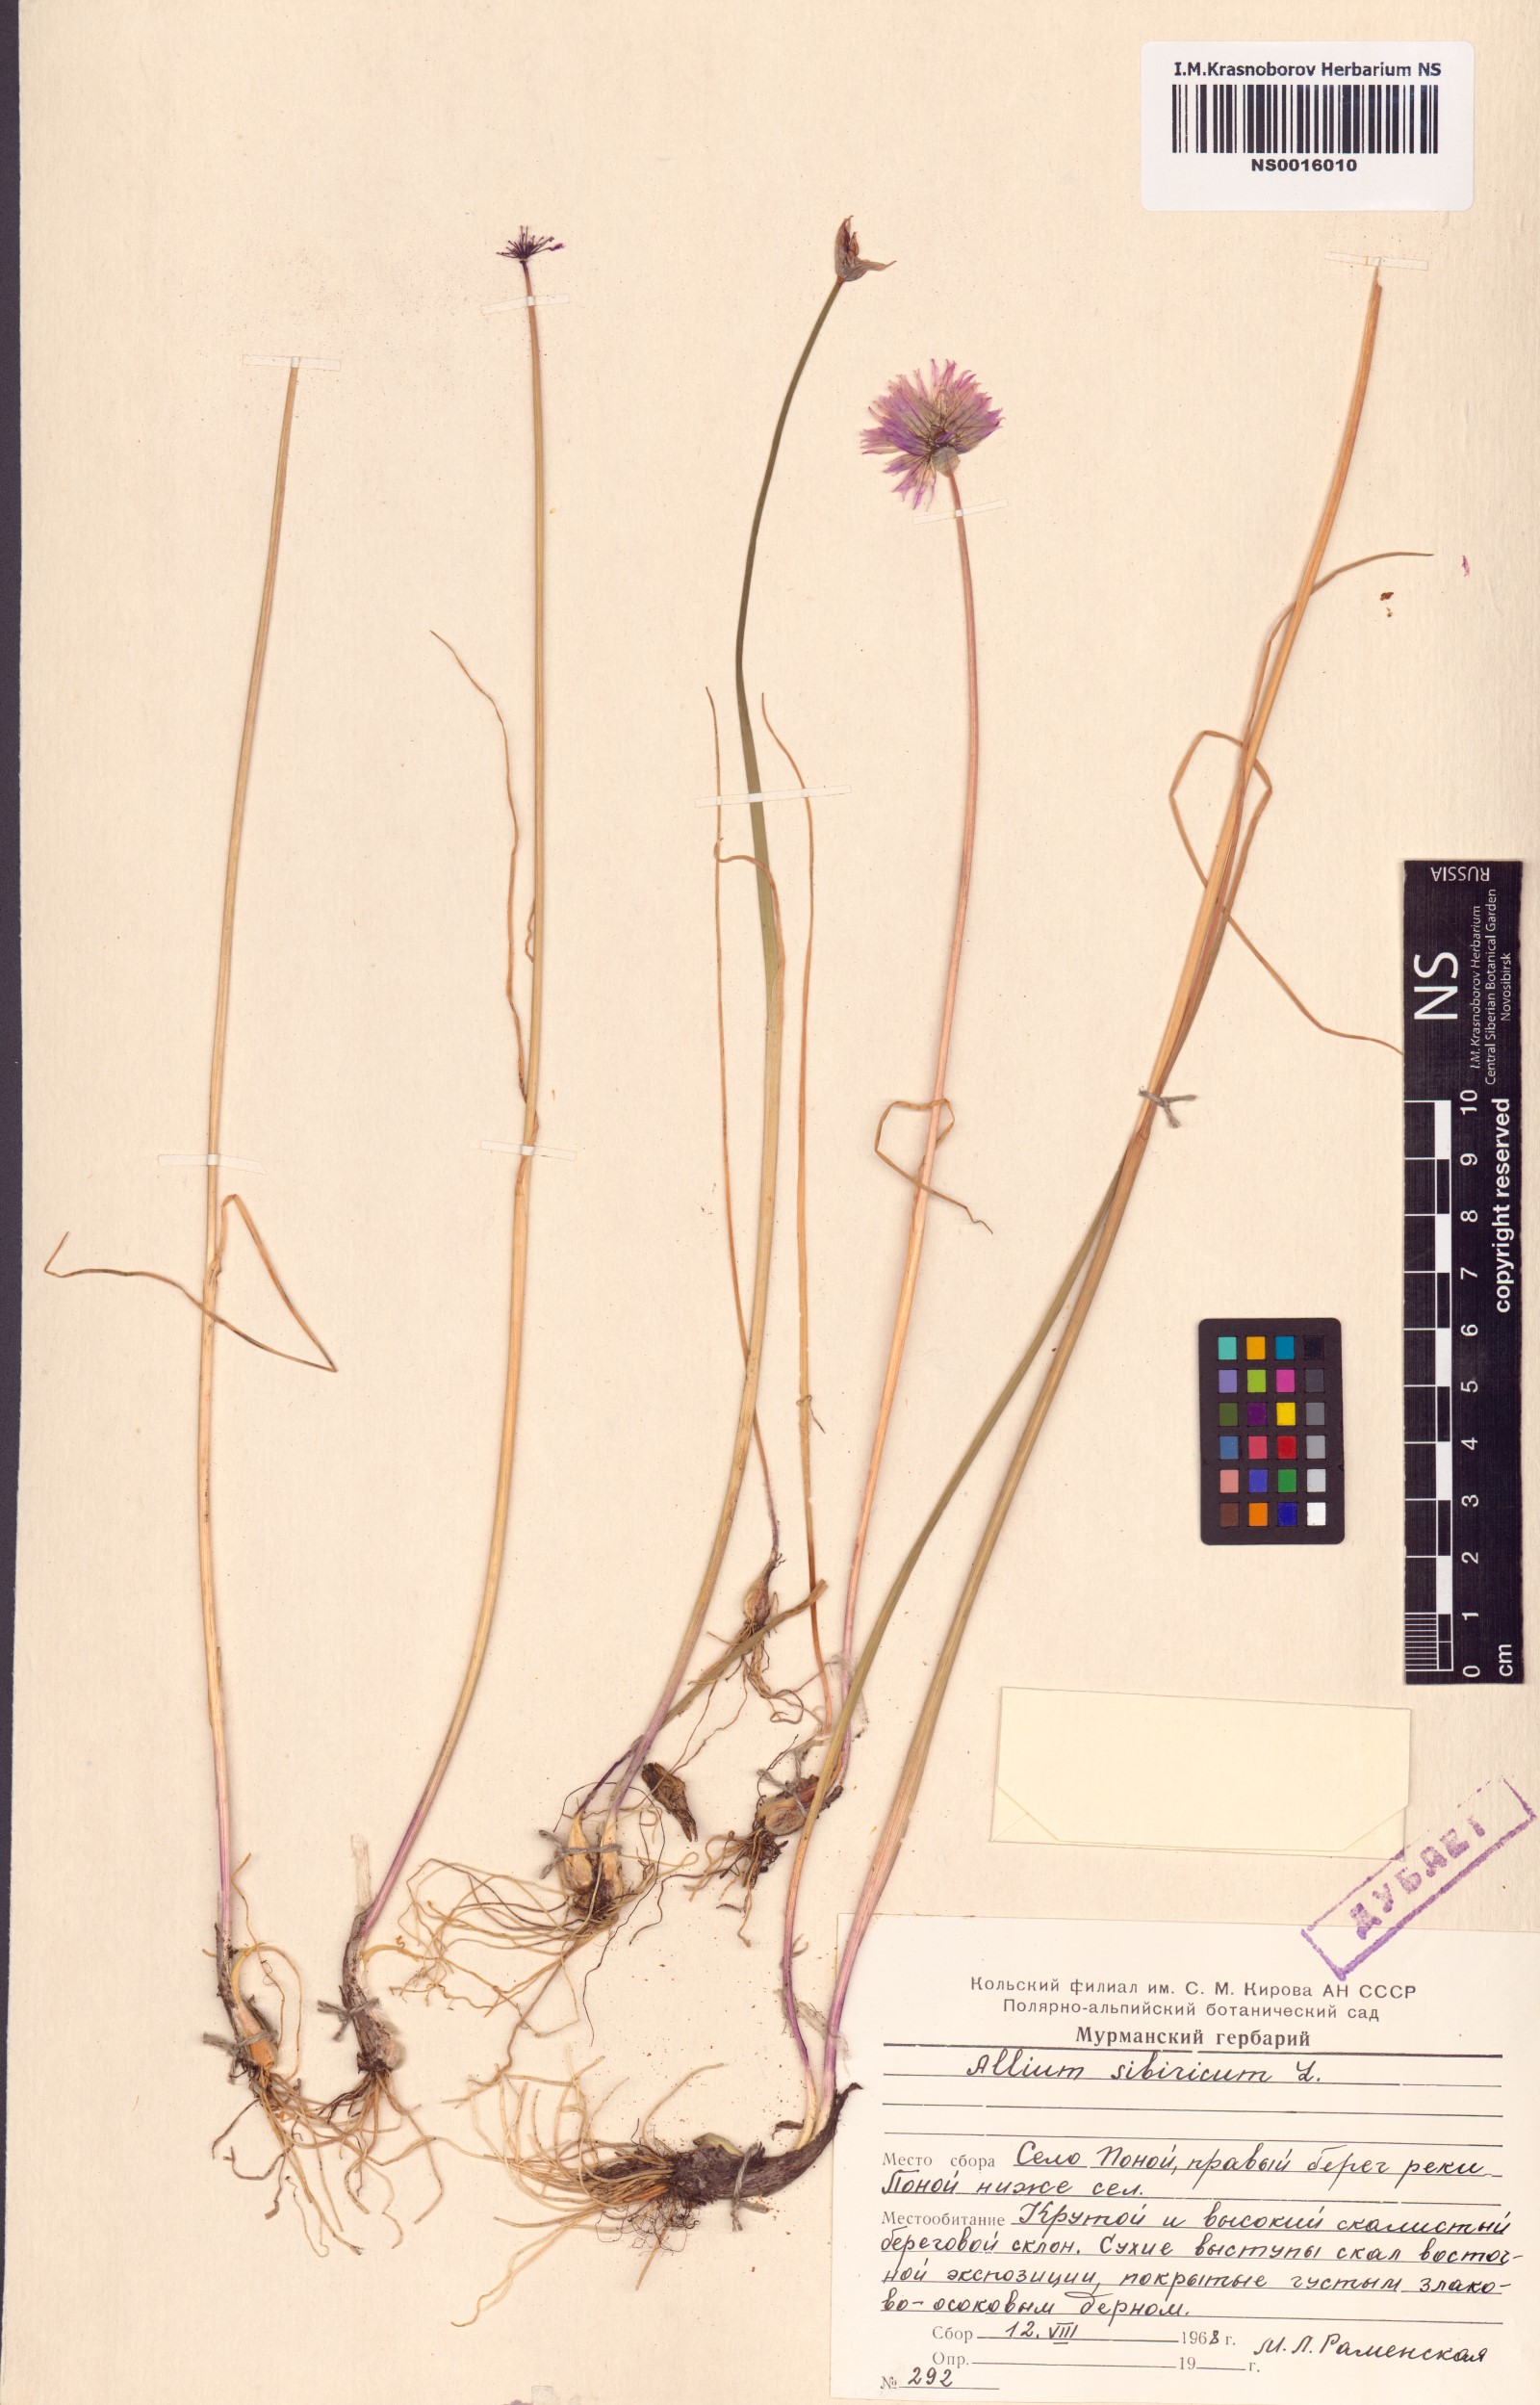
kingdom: Plantae
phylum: Tracheophyta
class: Liliopsida
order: Asparagales
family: Amaryllidaceae
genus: Allium
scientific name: Allium schoenoprasum
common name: Chives
